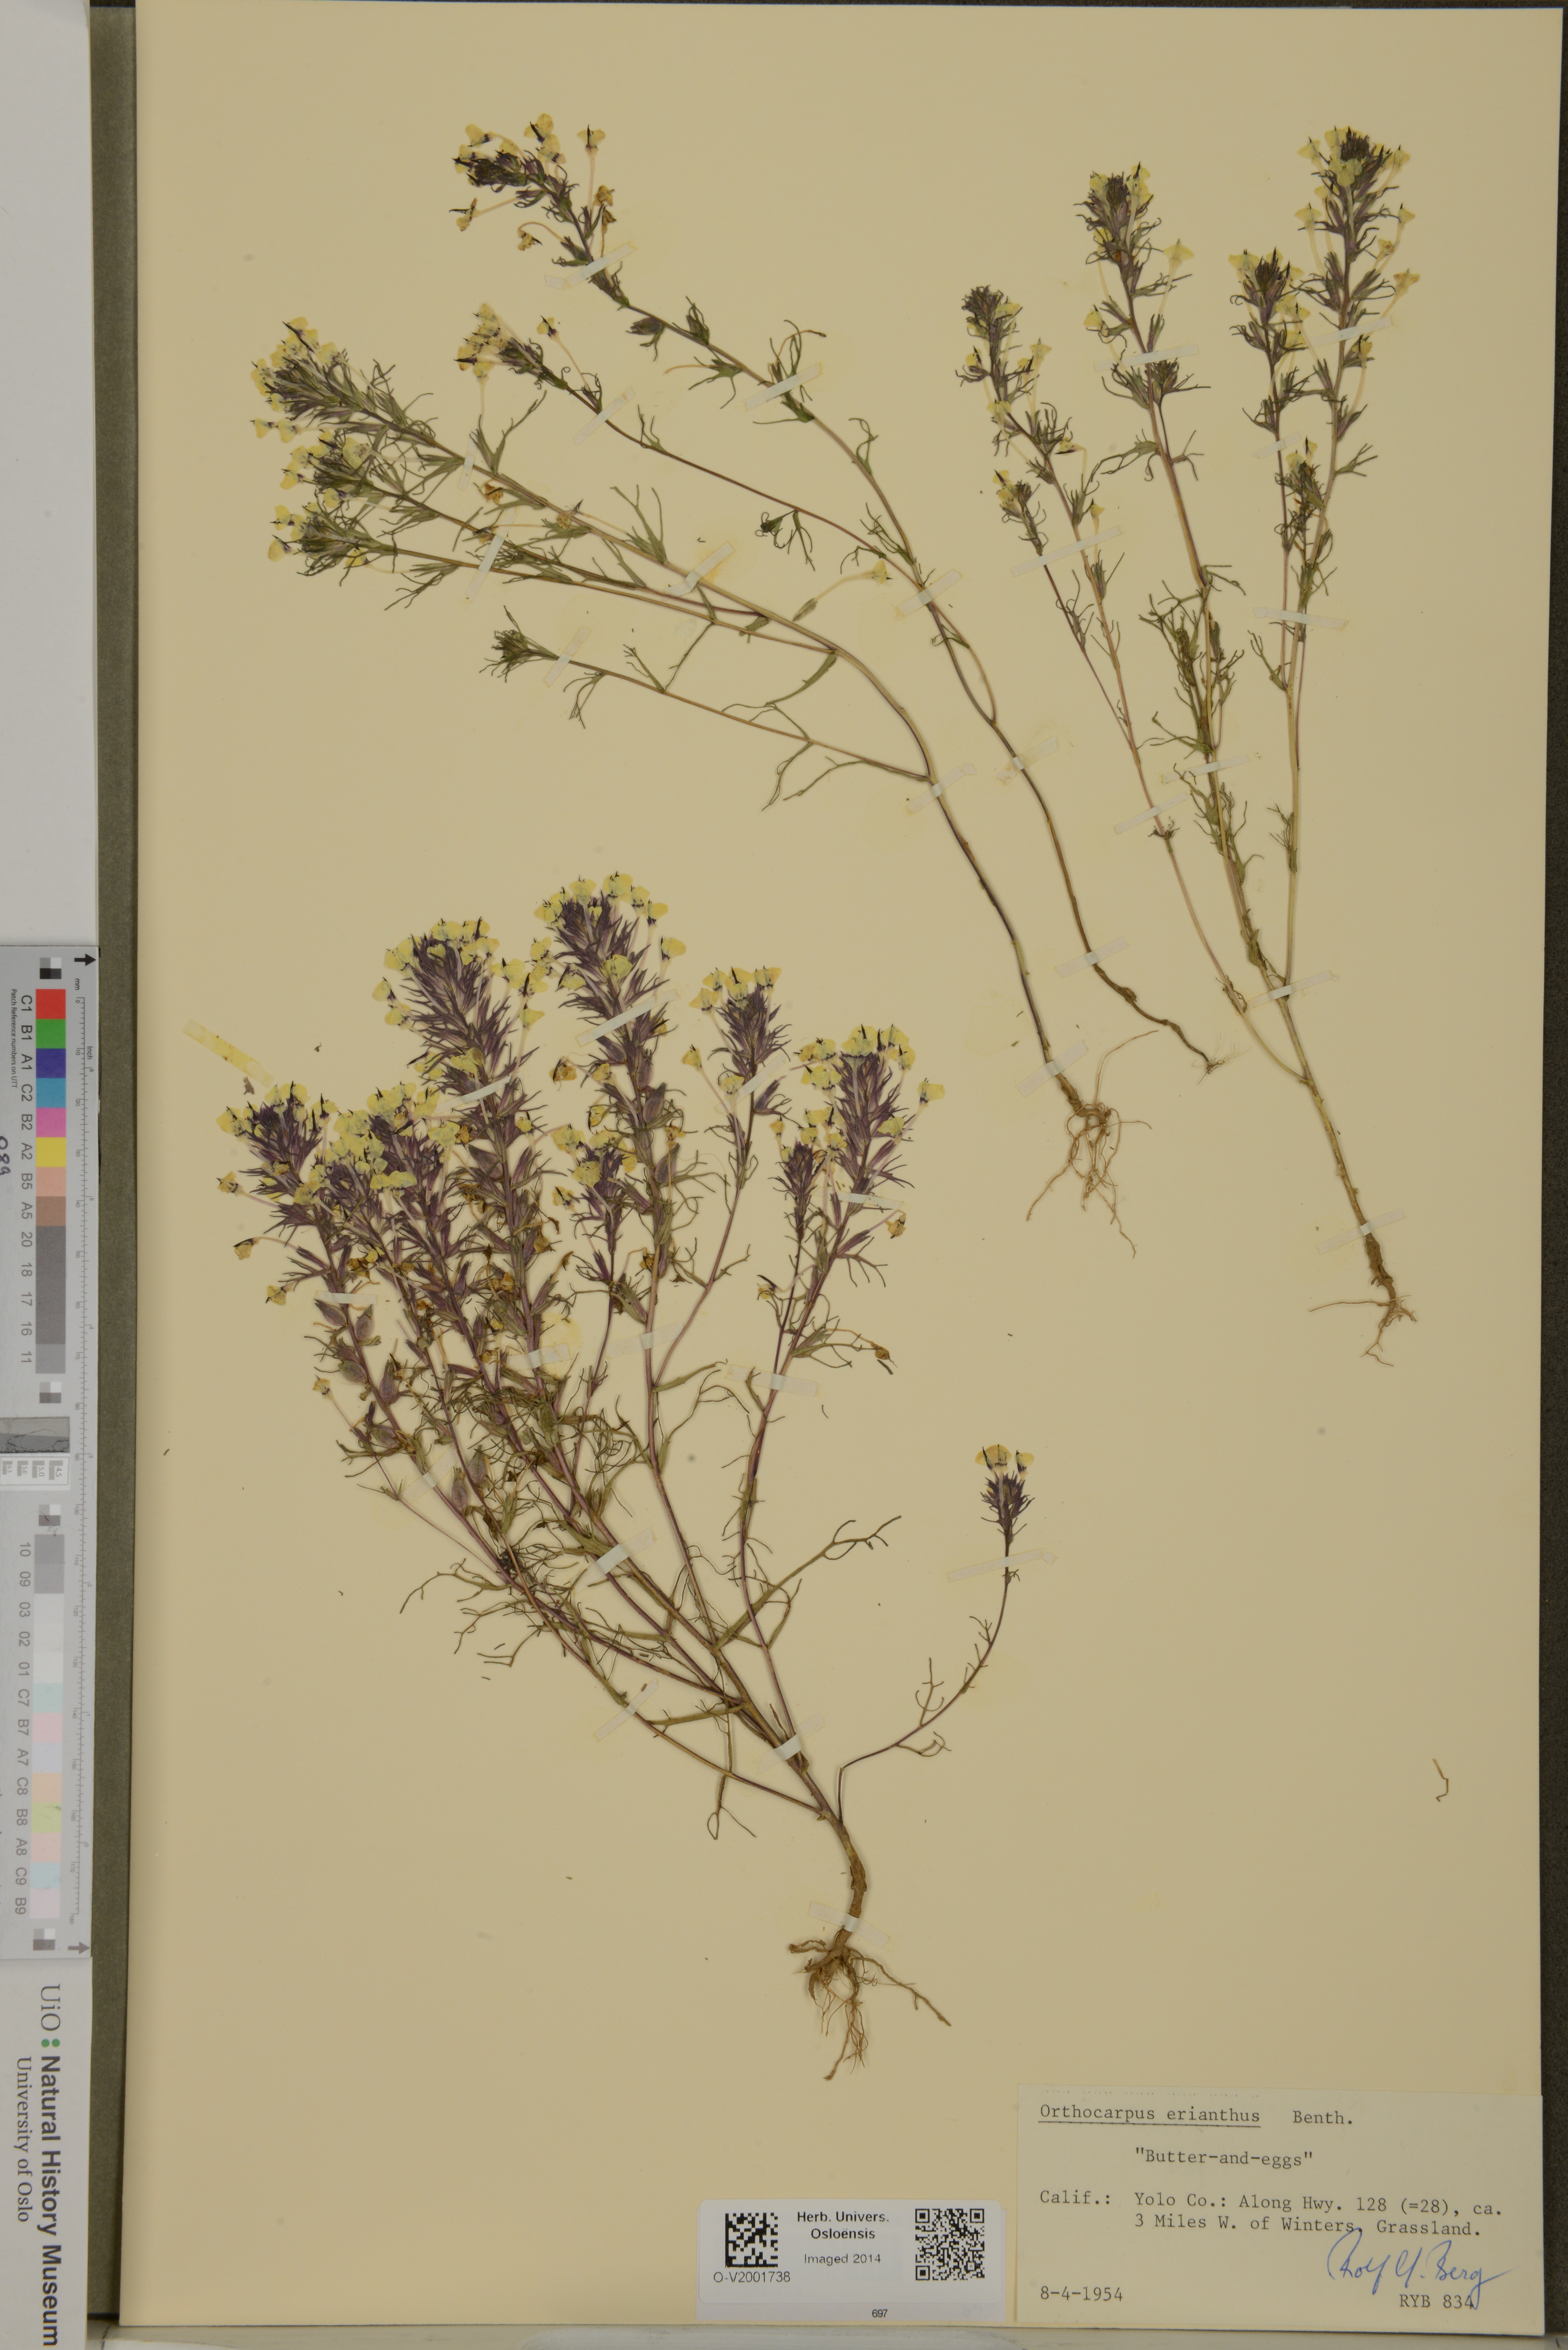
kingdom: Plantae
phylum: Tracheophyta
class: Magnoliopsida
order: Lamiales
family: Orobanchaceae
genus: Triphysaria
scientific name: Triphysaria eriantha
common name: Johnny-tuck
